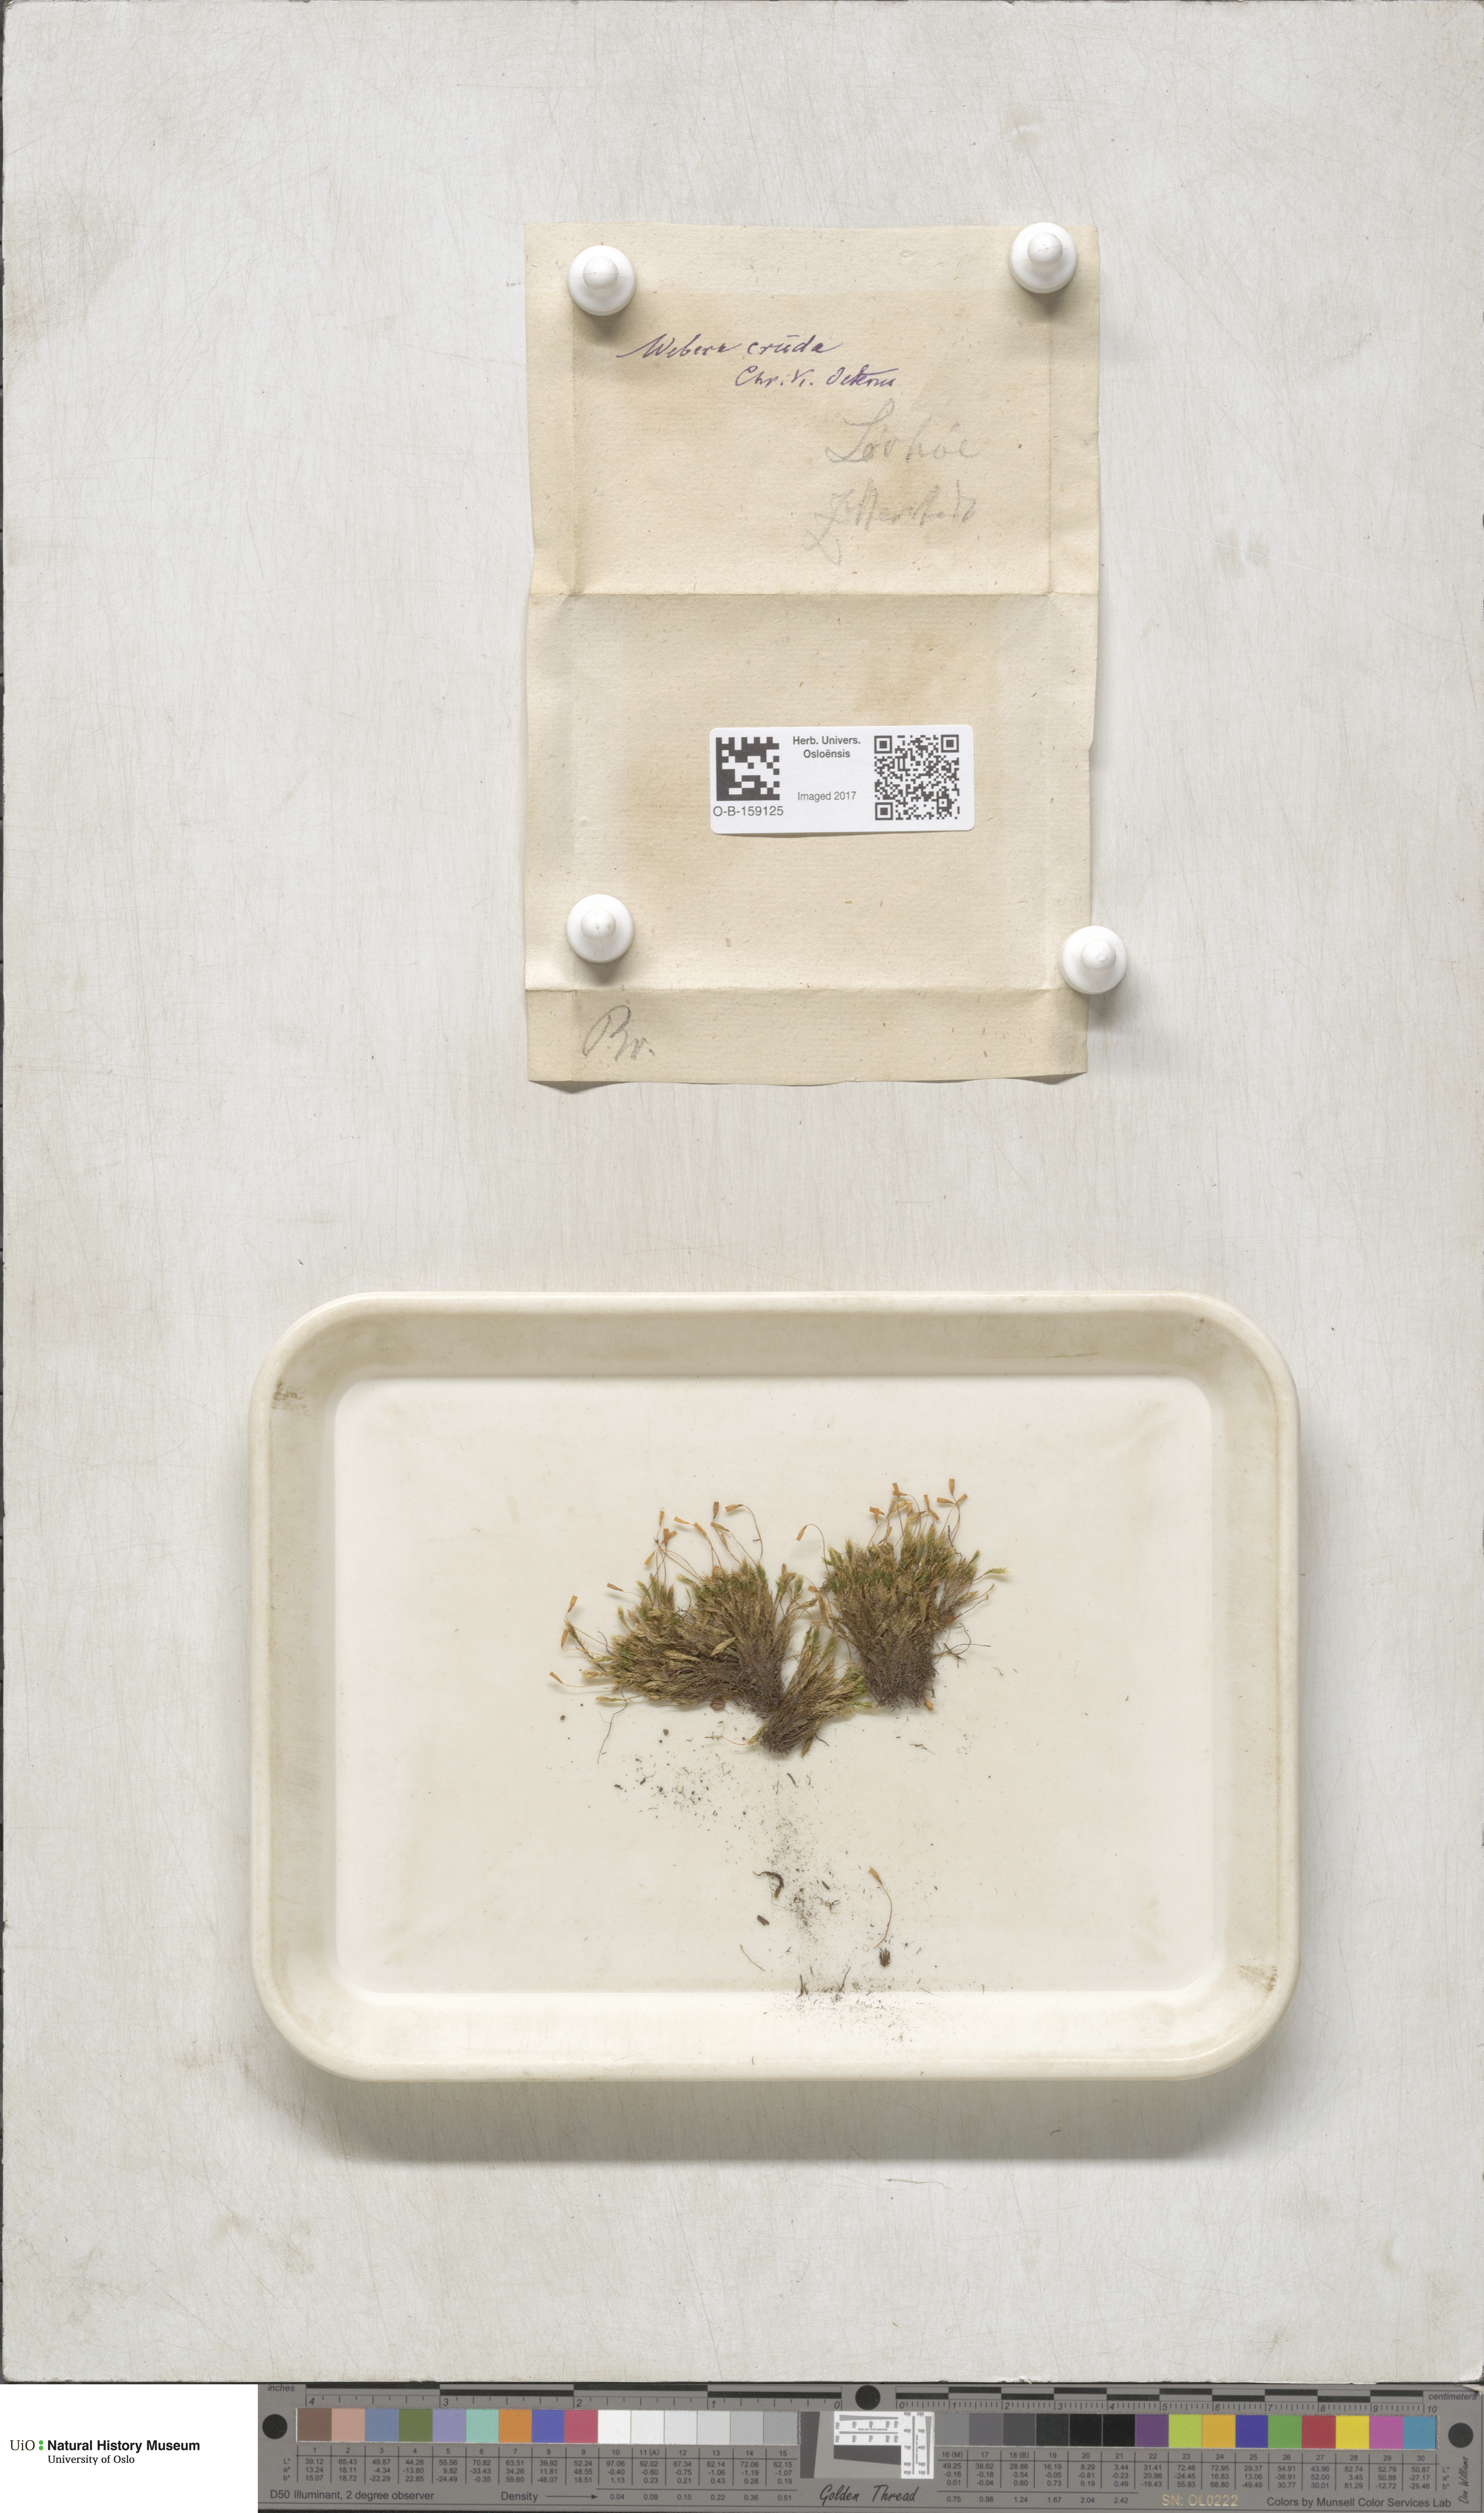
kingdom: Plantae
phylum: Bryophyta
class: Bryopsida
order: Bryales
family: Mniaceae
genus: Pohlia
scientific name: Pohlia cruda
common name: Opal nodding moss
